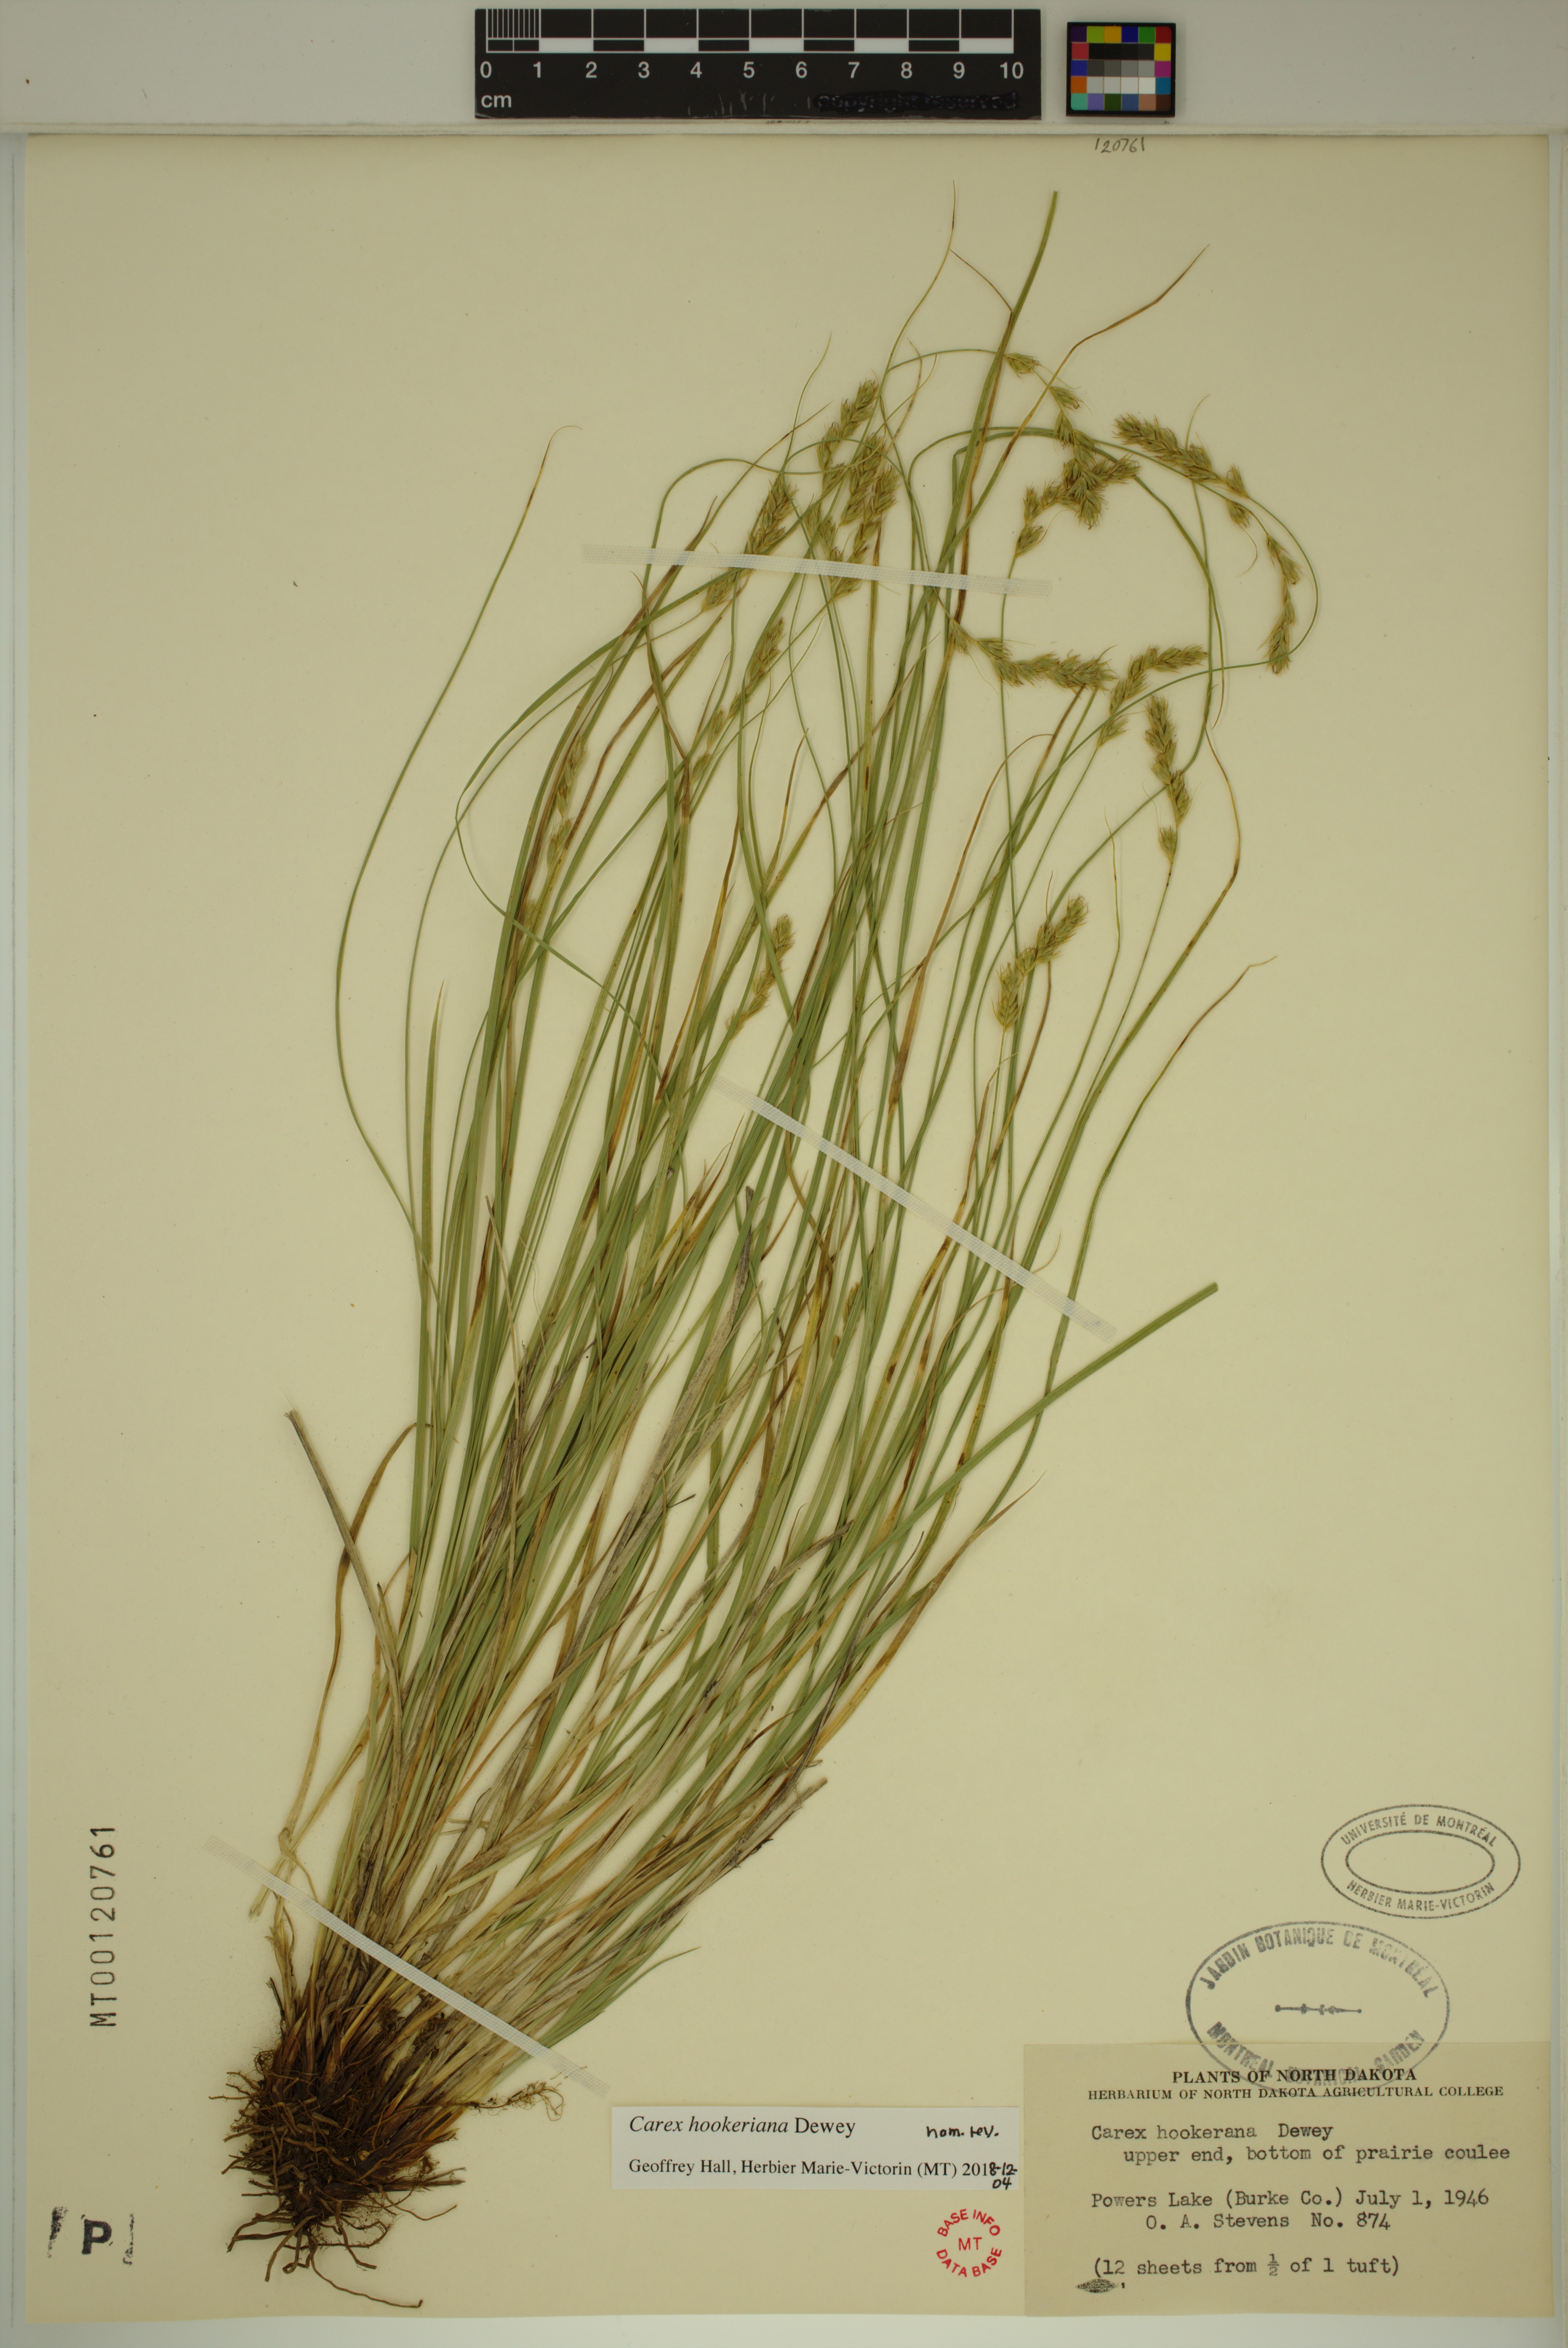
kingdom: Plantae
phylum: Tracheophyta
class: Liliopsida
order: Poales
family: Cyperaceae
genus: Carex
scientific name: Carex hookeriana
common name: Hooker's sedge
